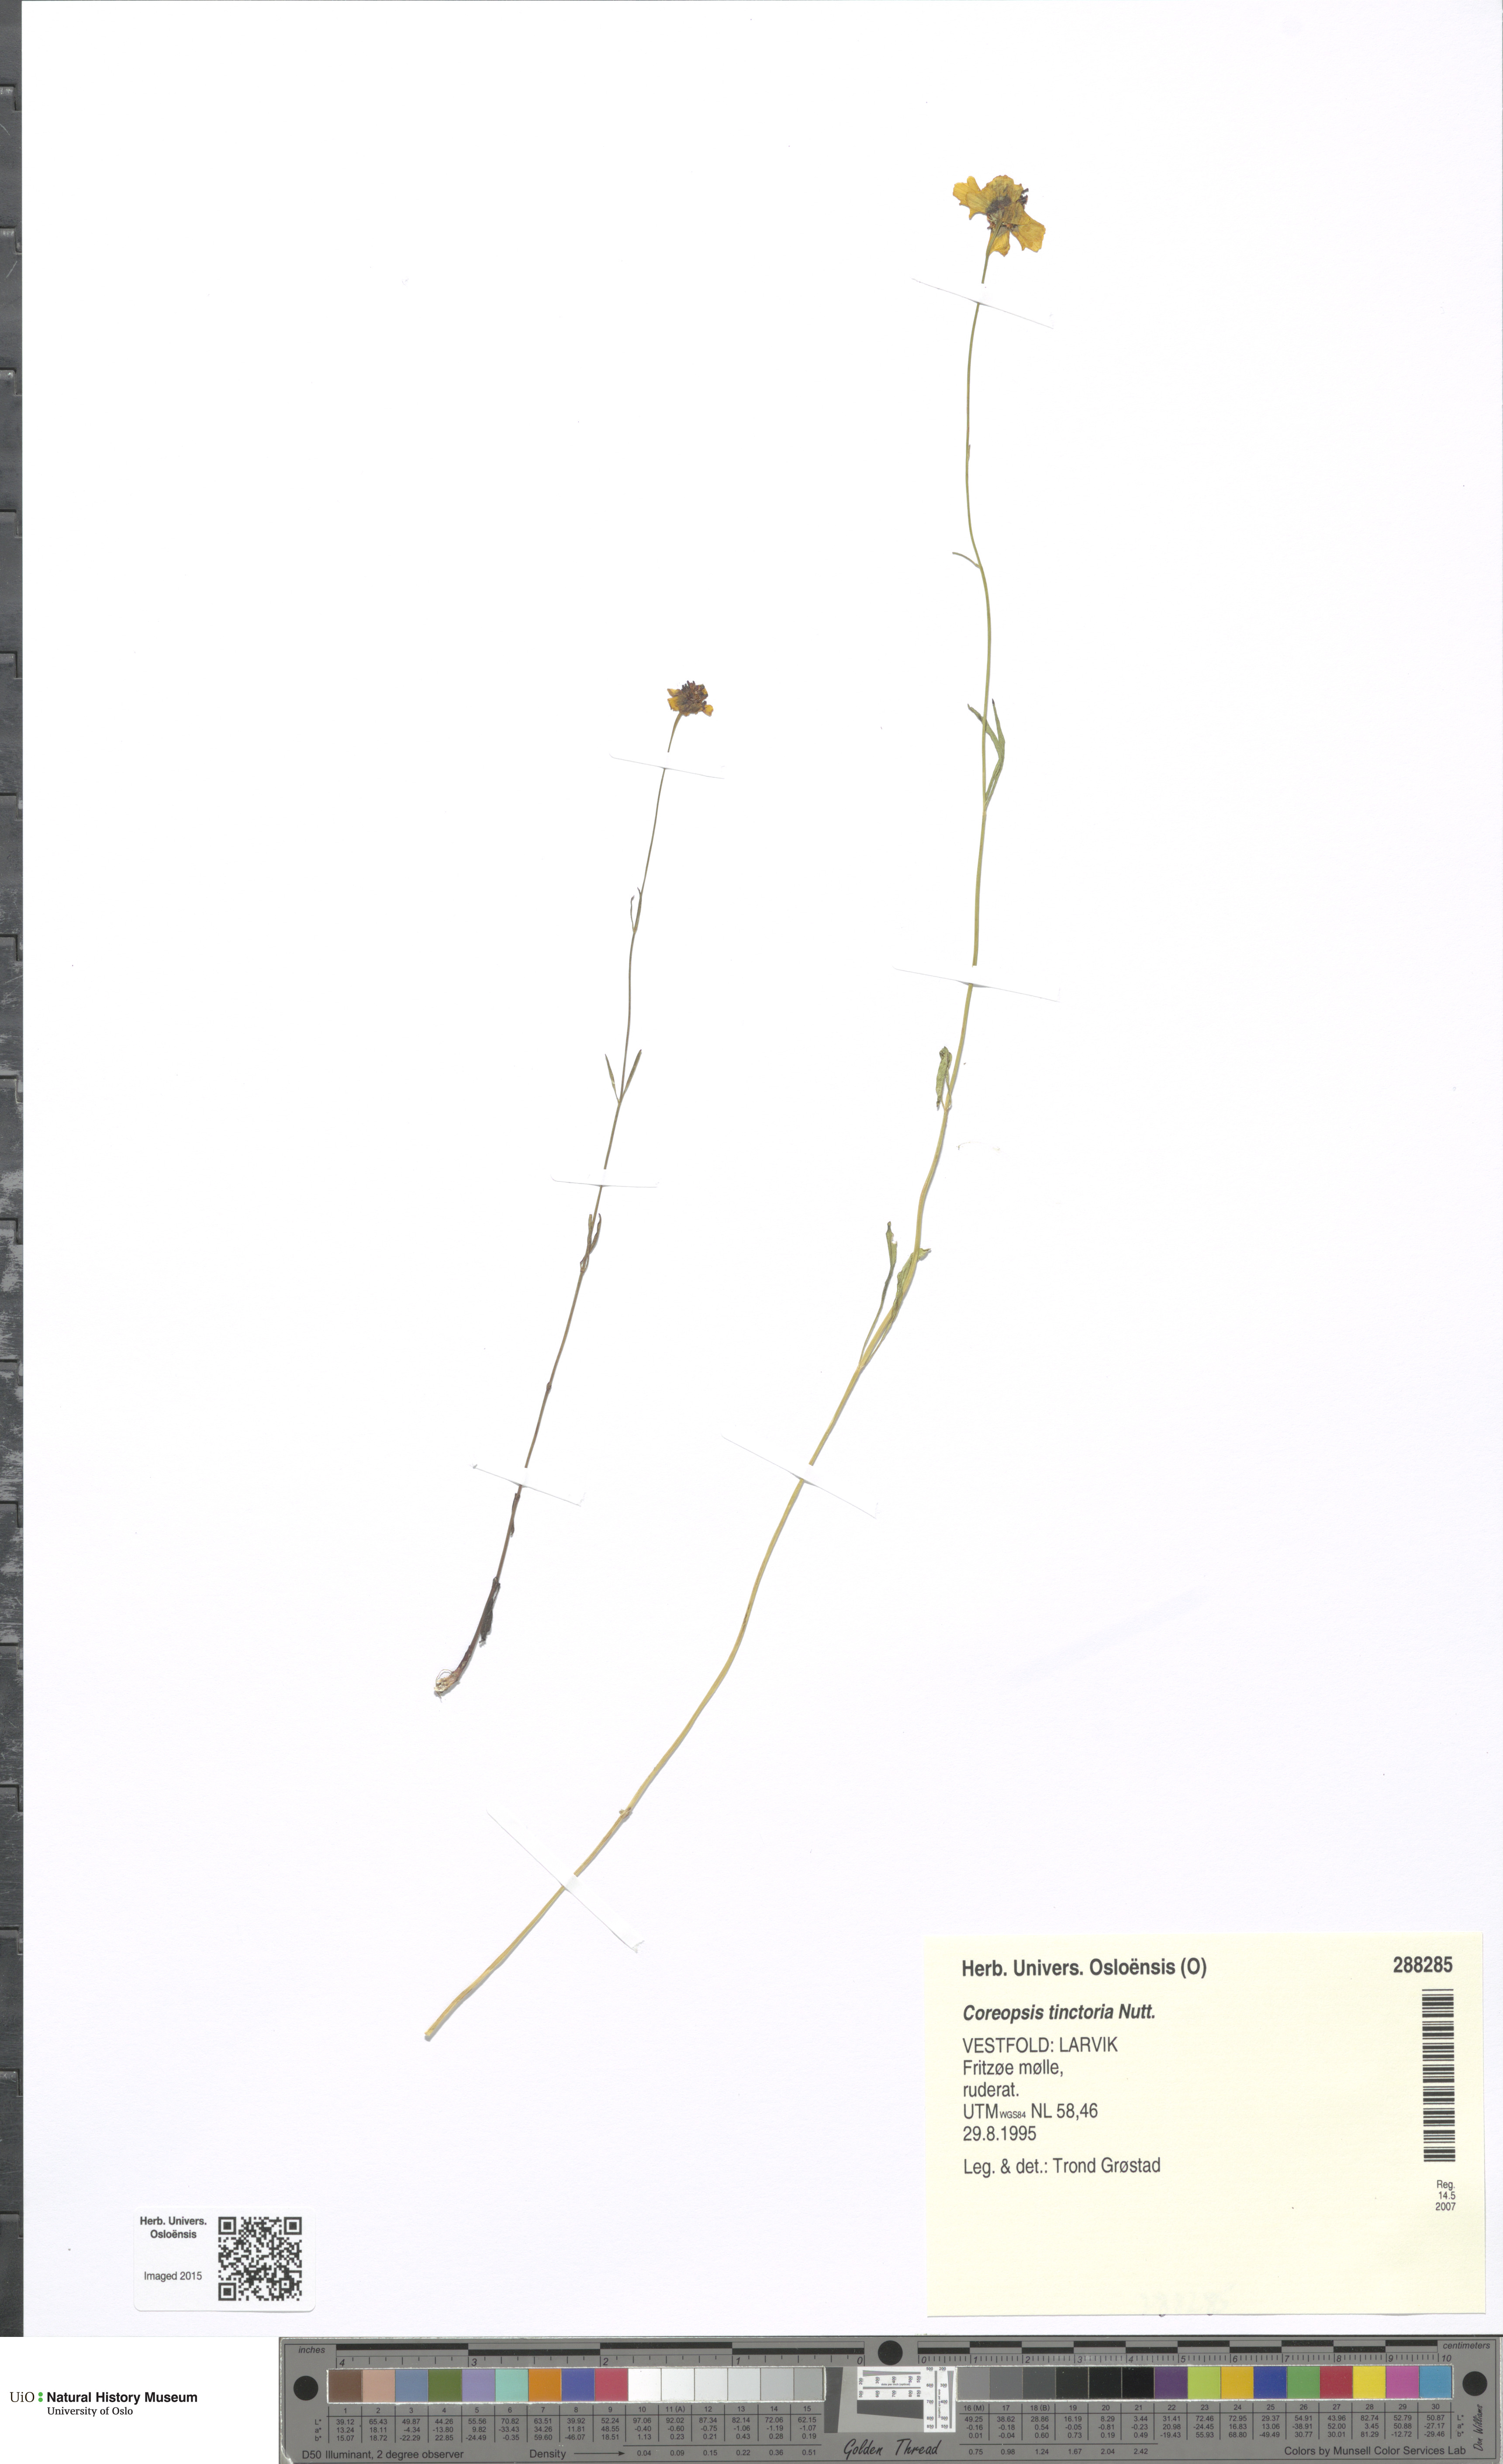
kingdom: Plantae
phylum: Tracheophyta
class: Magnoliopsida
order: Asterales
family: Asteraceae
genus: Coreopsis
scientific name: Coreopsis tinctoria
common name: Garden tickseed
